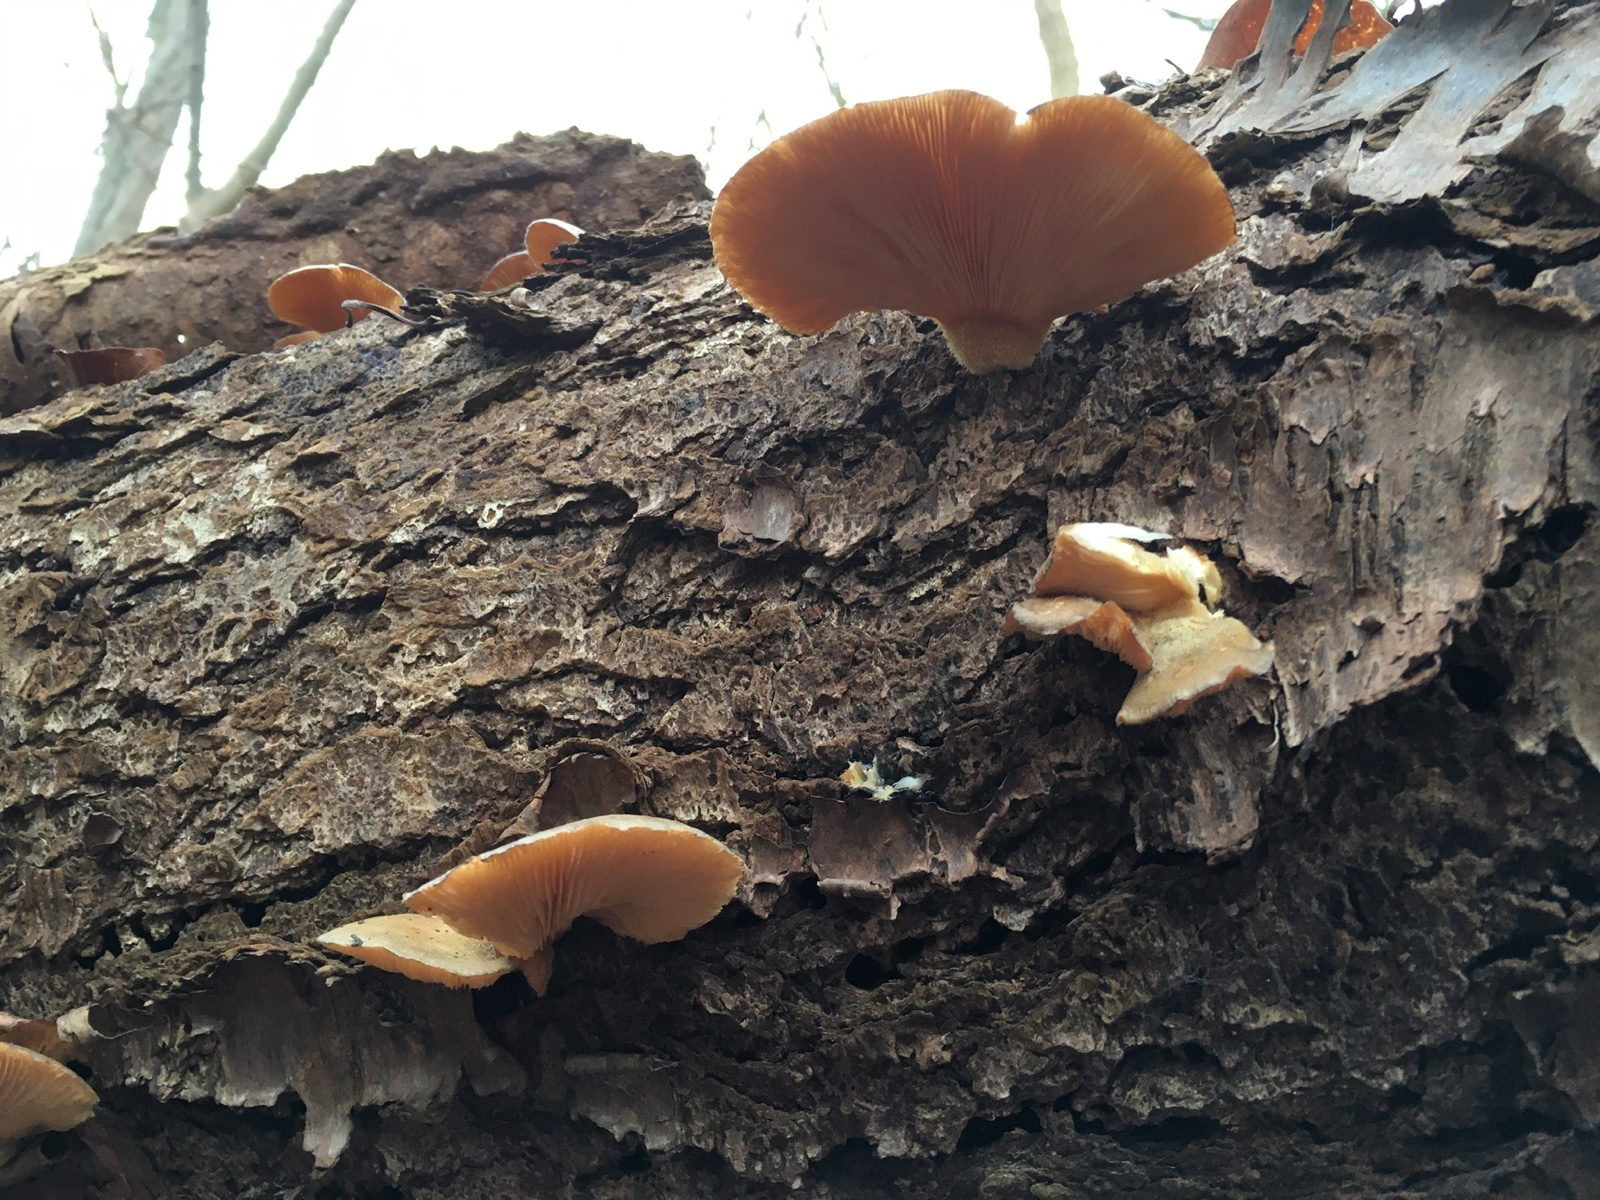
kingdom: Fungi
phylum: Basidiomycota
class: Agaricomycetes
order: Agaricales
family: Sarcomyxaceae
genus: Sarcomyxa
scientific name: Sarcomyxa serotina
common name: gummihat
